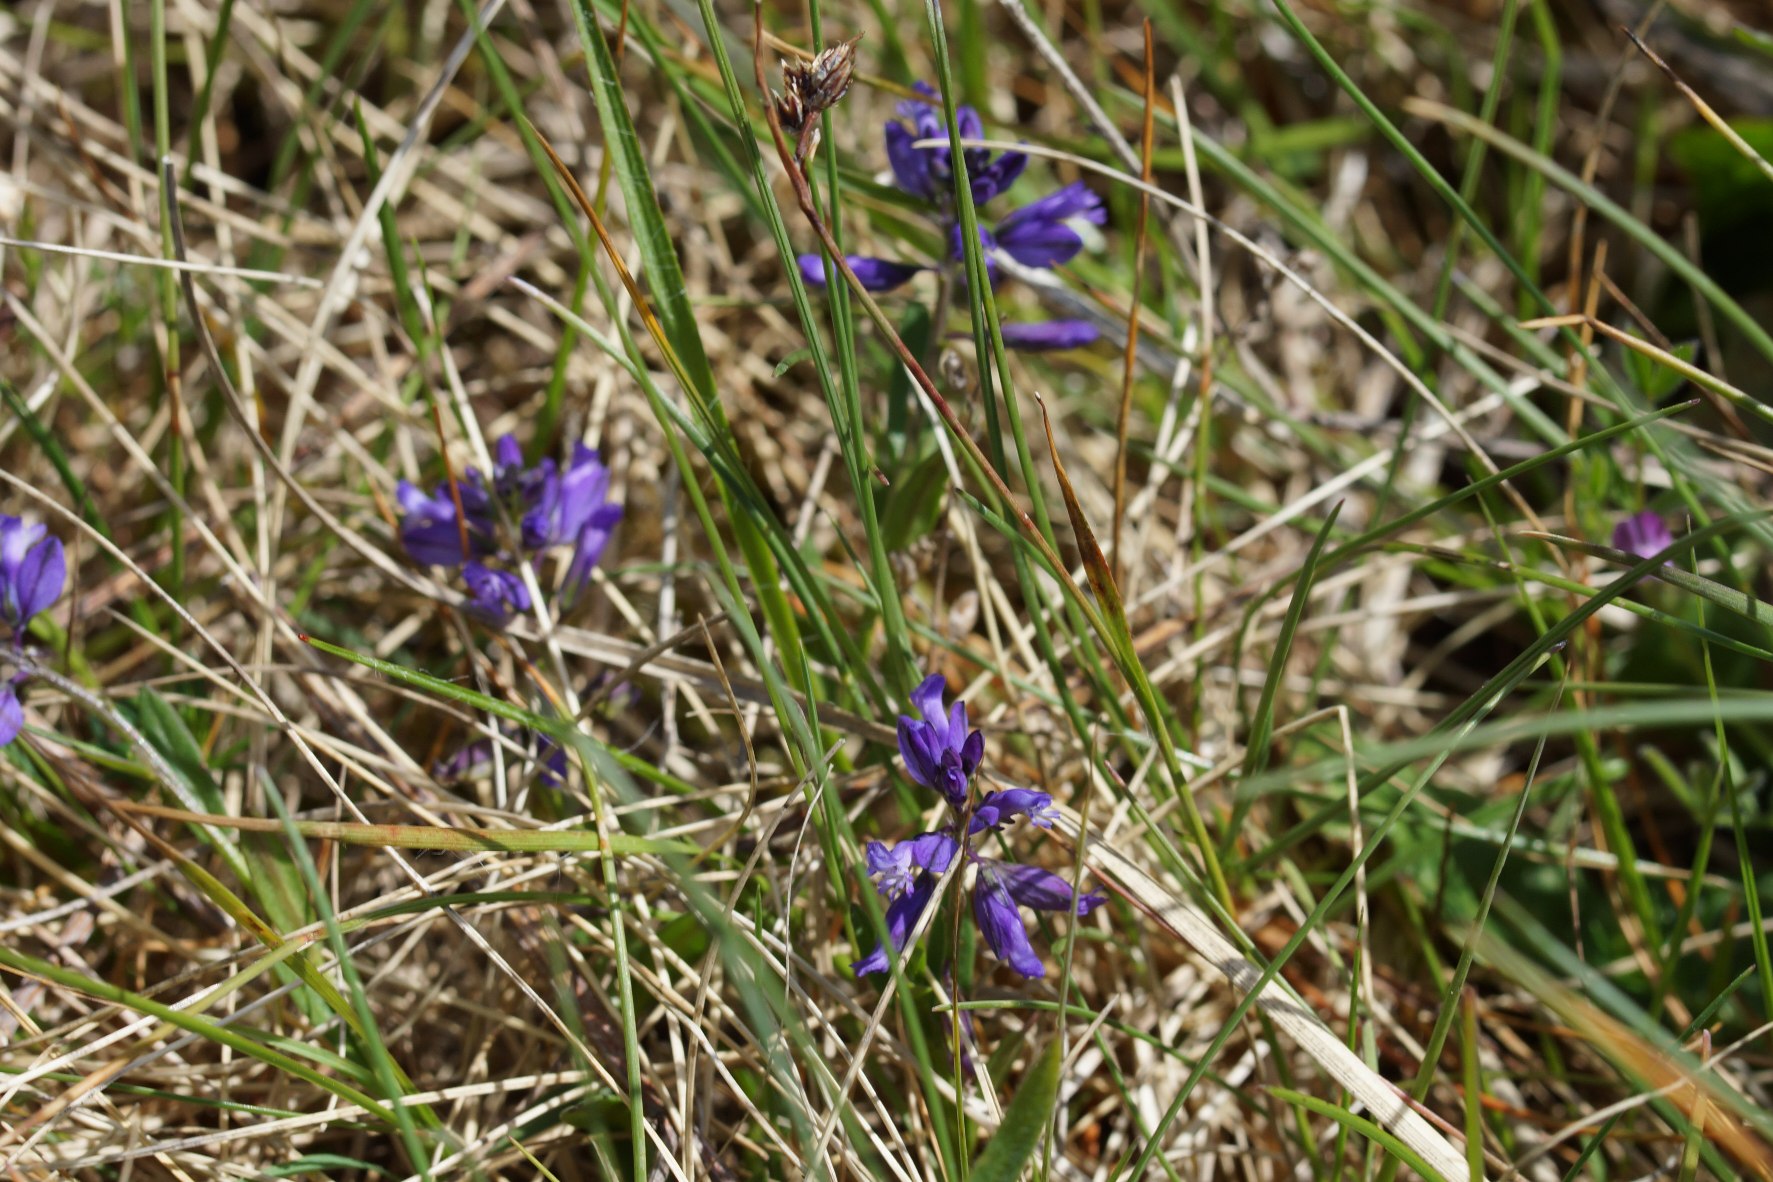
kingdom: Plantae
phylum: Tracheophyta
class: Magnoliopsida
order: Fabales
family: Polygalaceae
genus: Polygala
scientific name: Polygala vulgaris
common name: Almindelig mælkeurt
